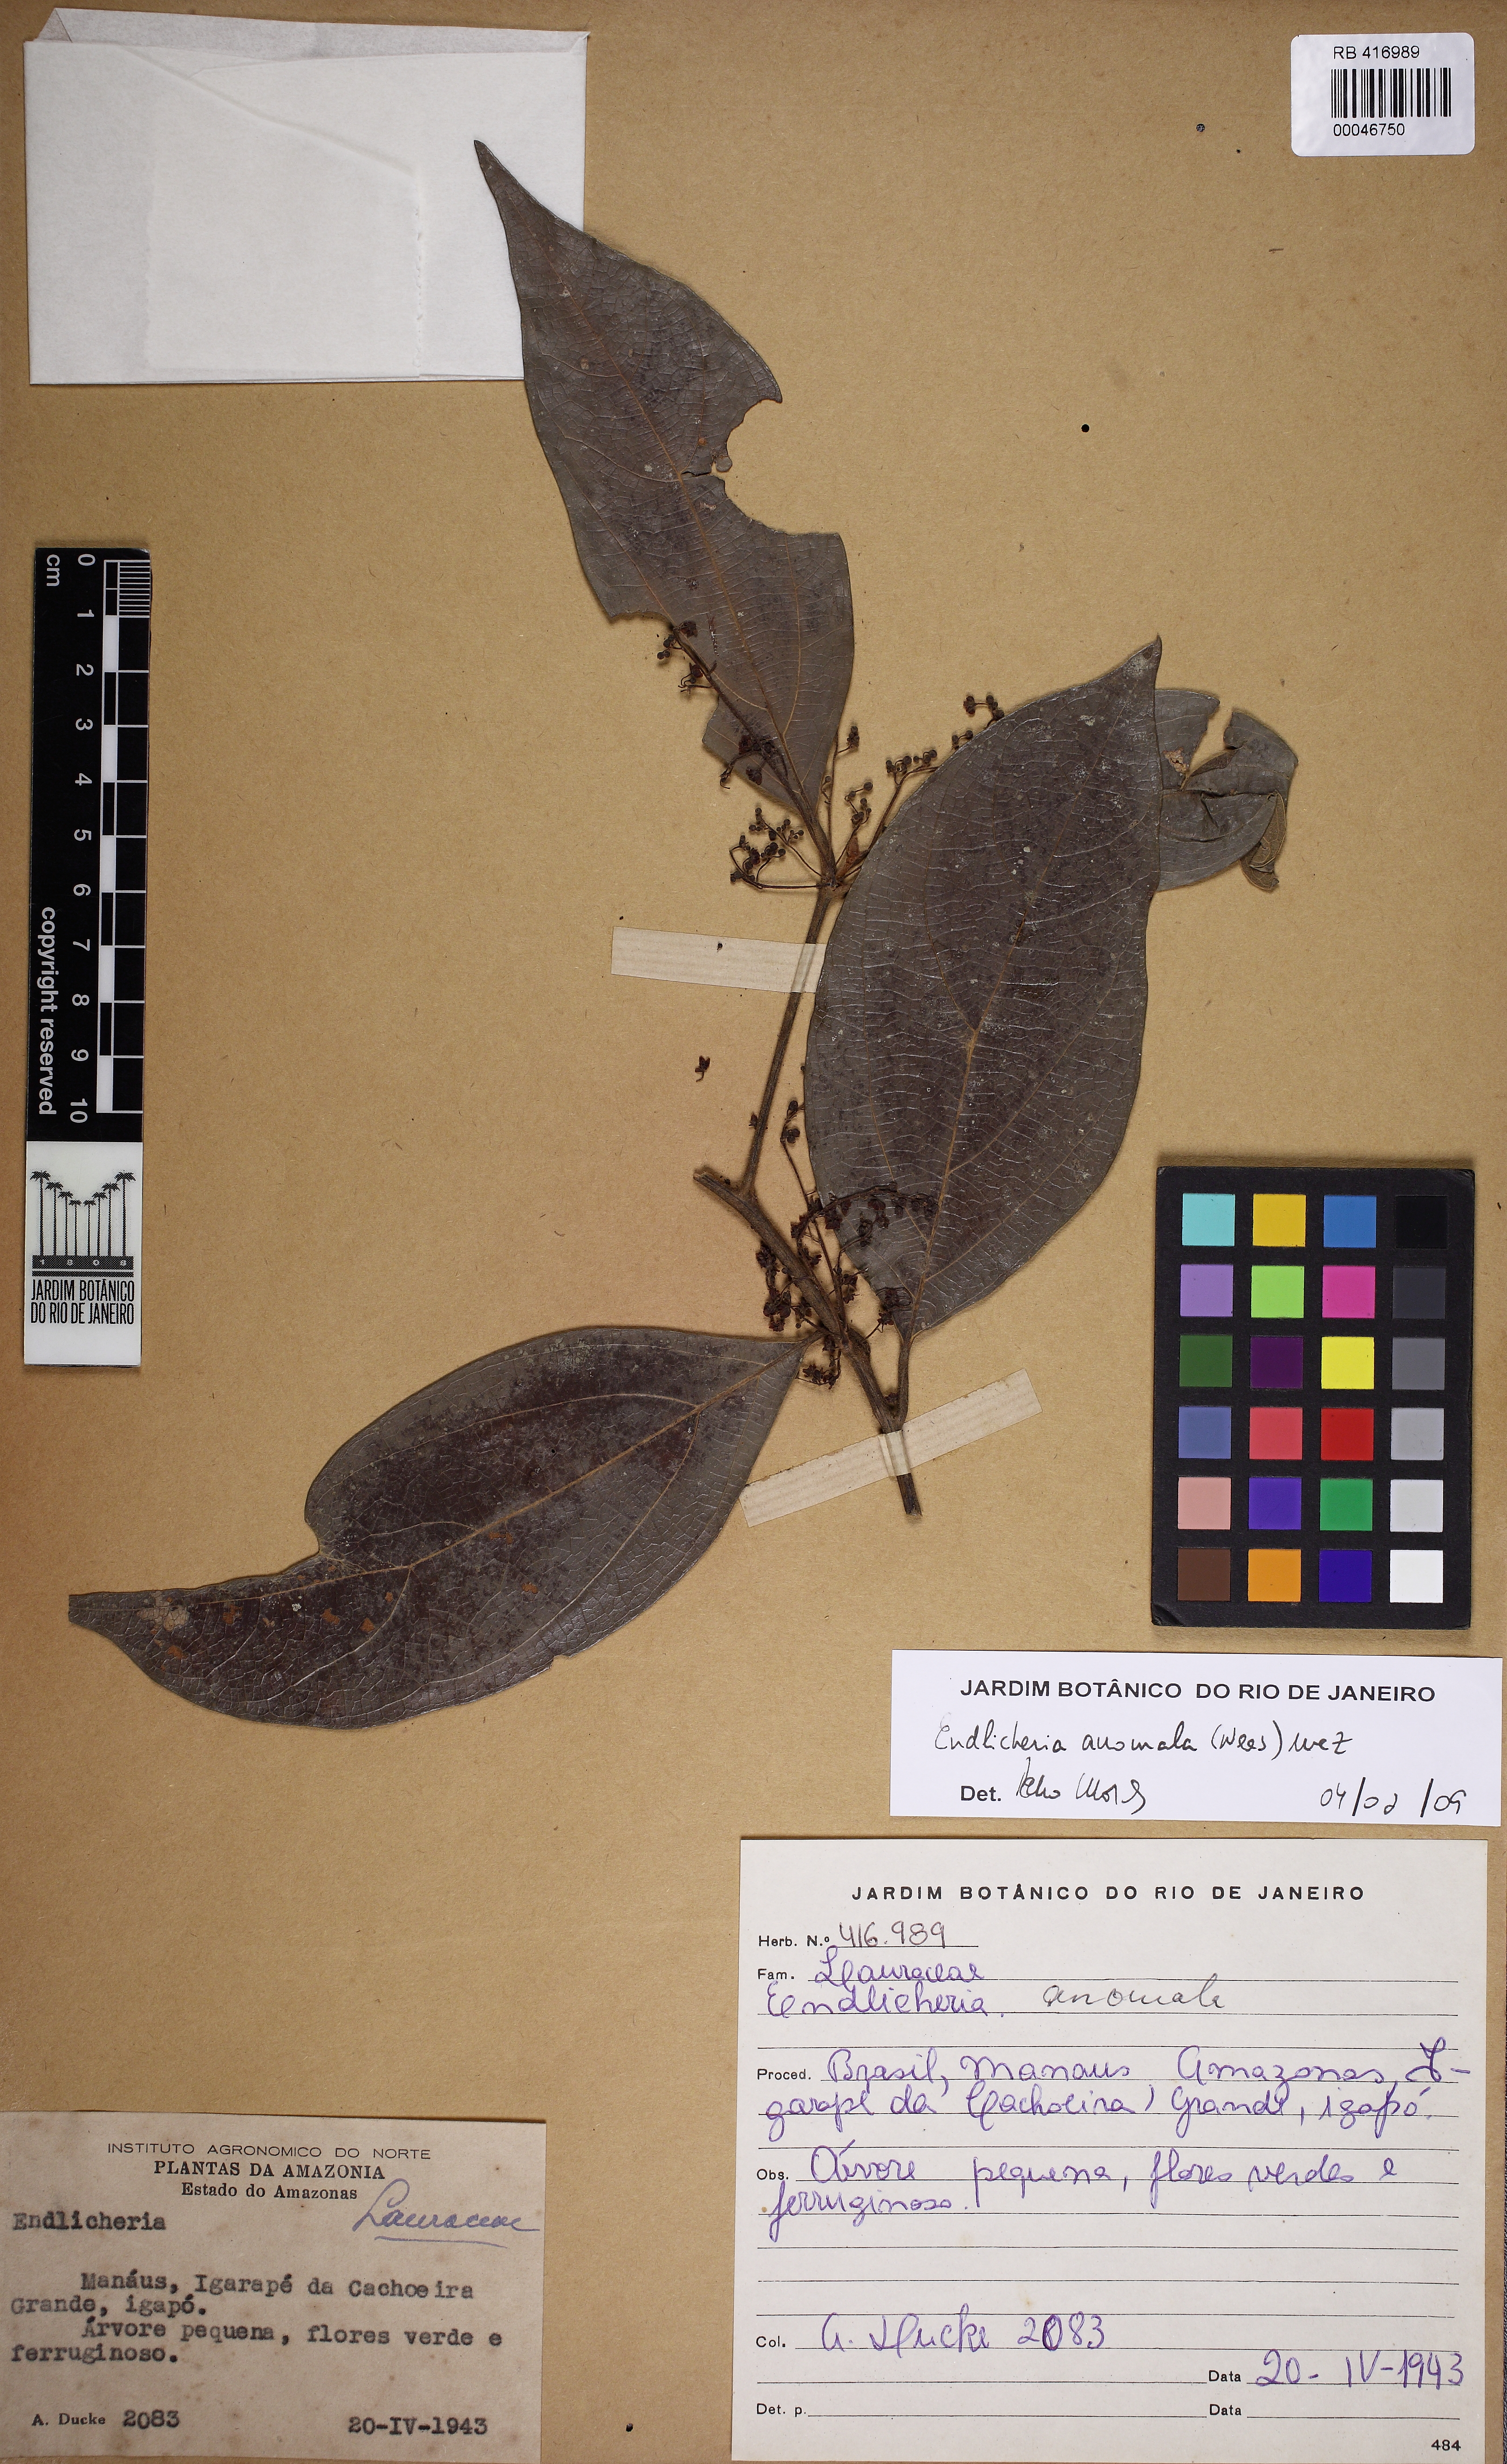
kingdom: Plantae
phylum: Tracheophyta
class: Magnoliopsida
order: Laurales
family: Lauraceae
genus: Endlicheria
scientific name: Endlicheria anomala
